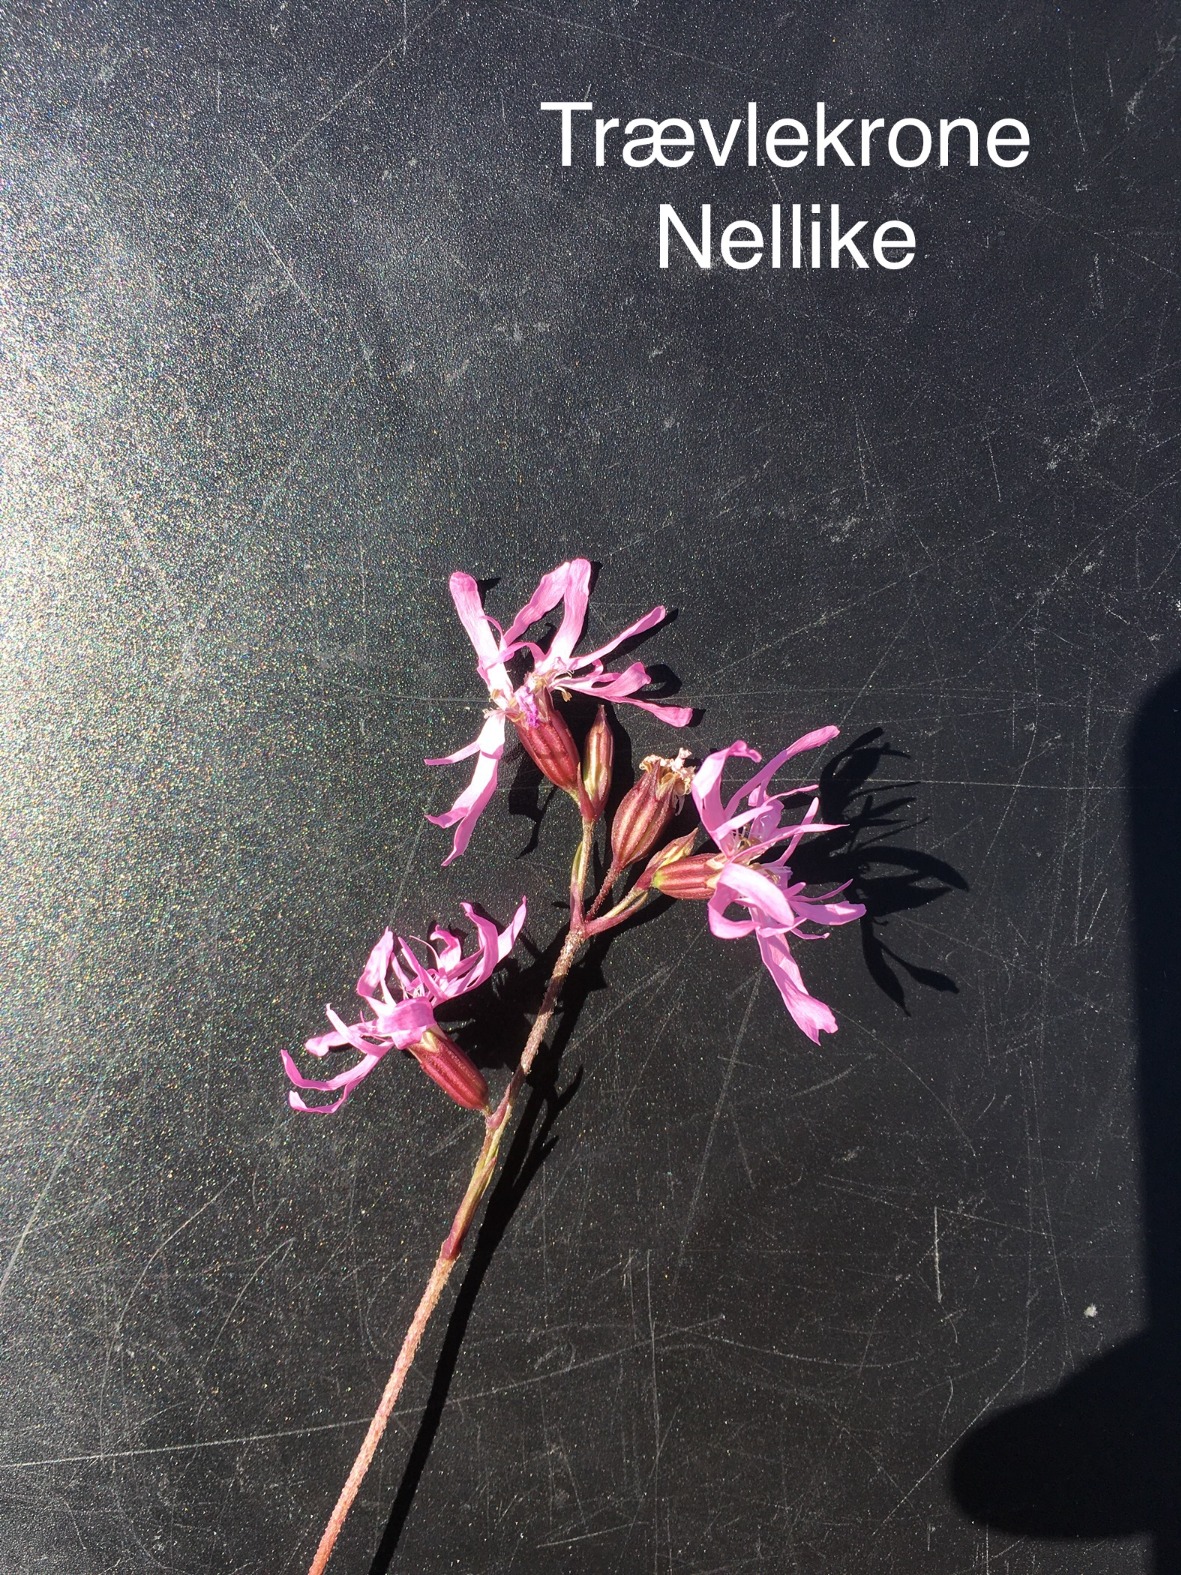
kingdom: Plantae
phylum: Tracheophyta
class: Magnoliopsida
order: Caryophyllales
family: Caryophyllaceae
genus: Silene
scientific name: Silene flos-cuculi
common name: Trævlekrone
